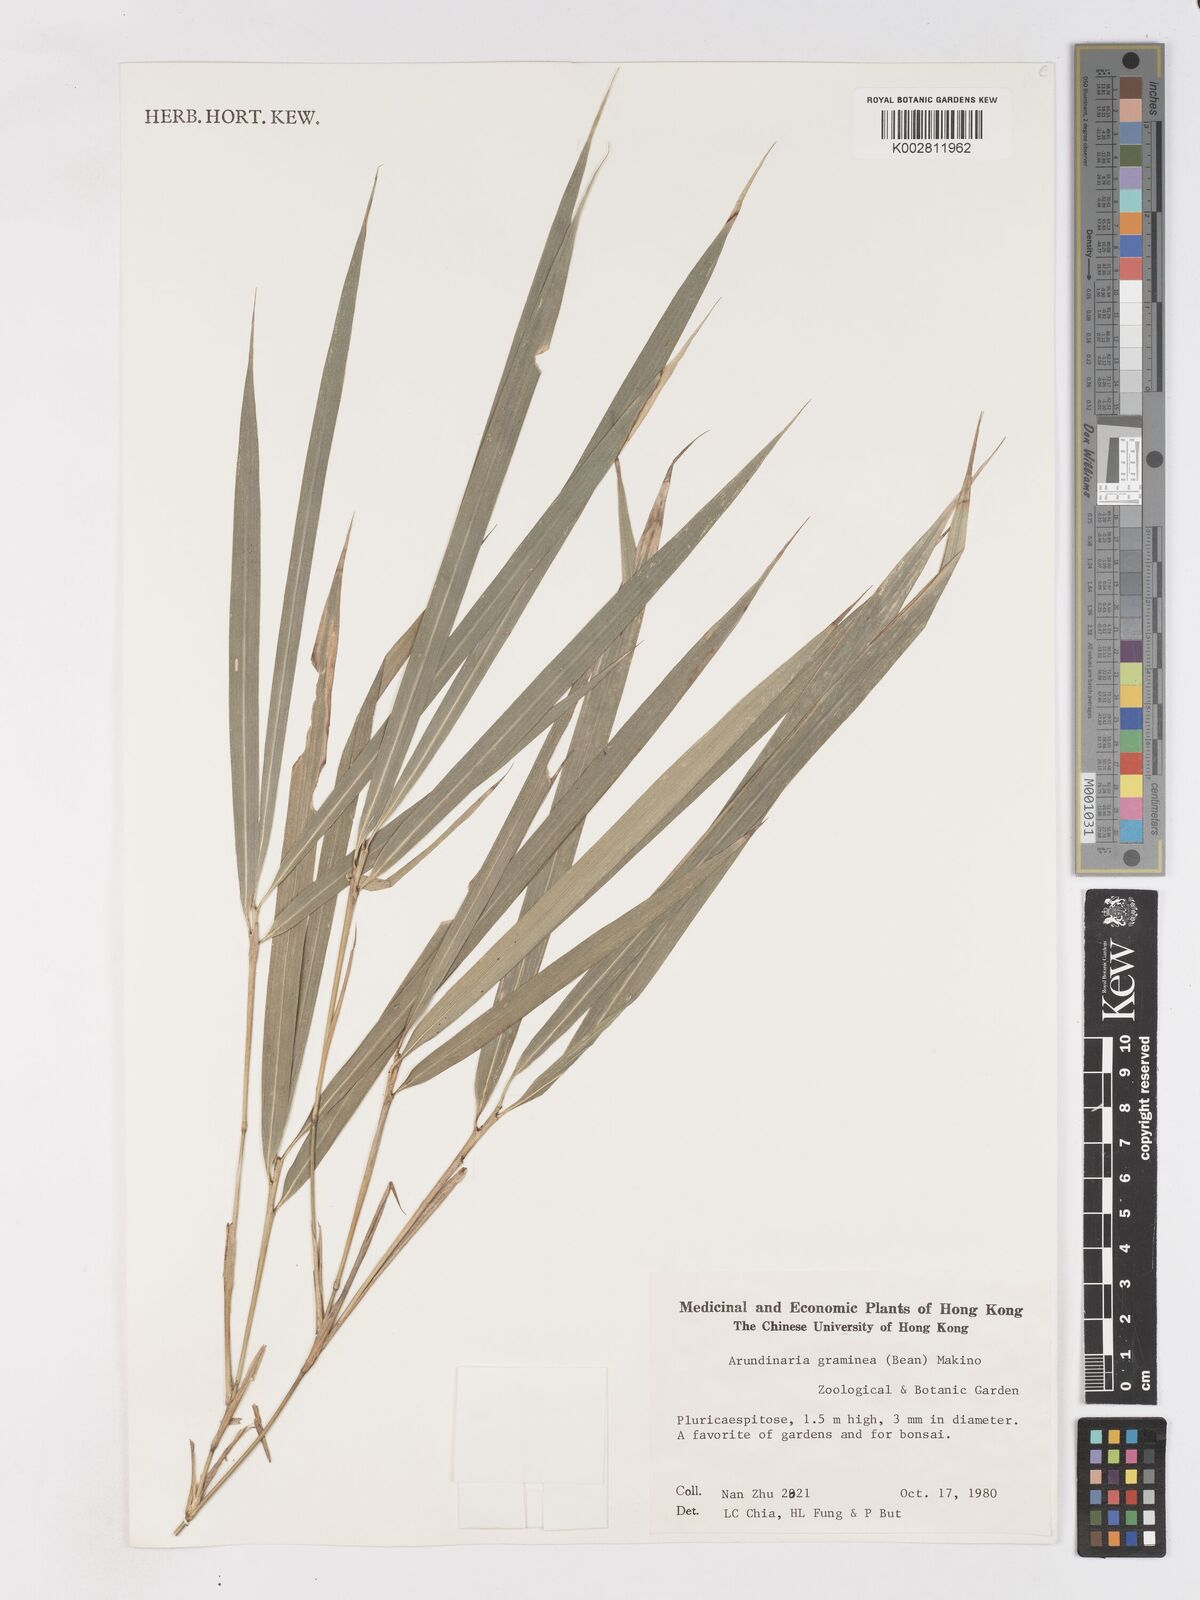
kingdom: Plantae
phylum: Tracheophyta
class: Liliopsida
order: Poales
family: Poaceae
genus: Pleioblastus
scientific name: Pleioblastus gramineus
